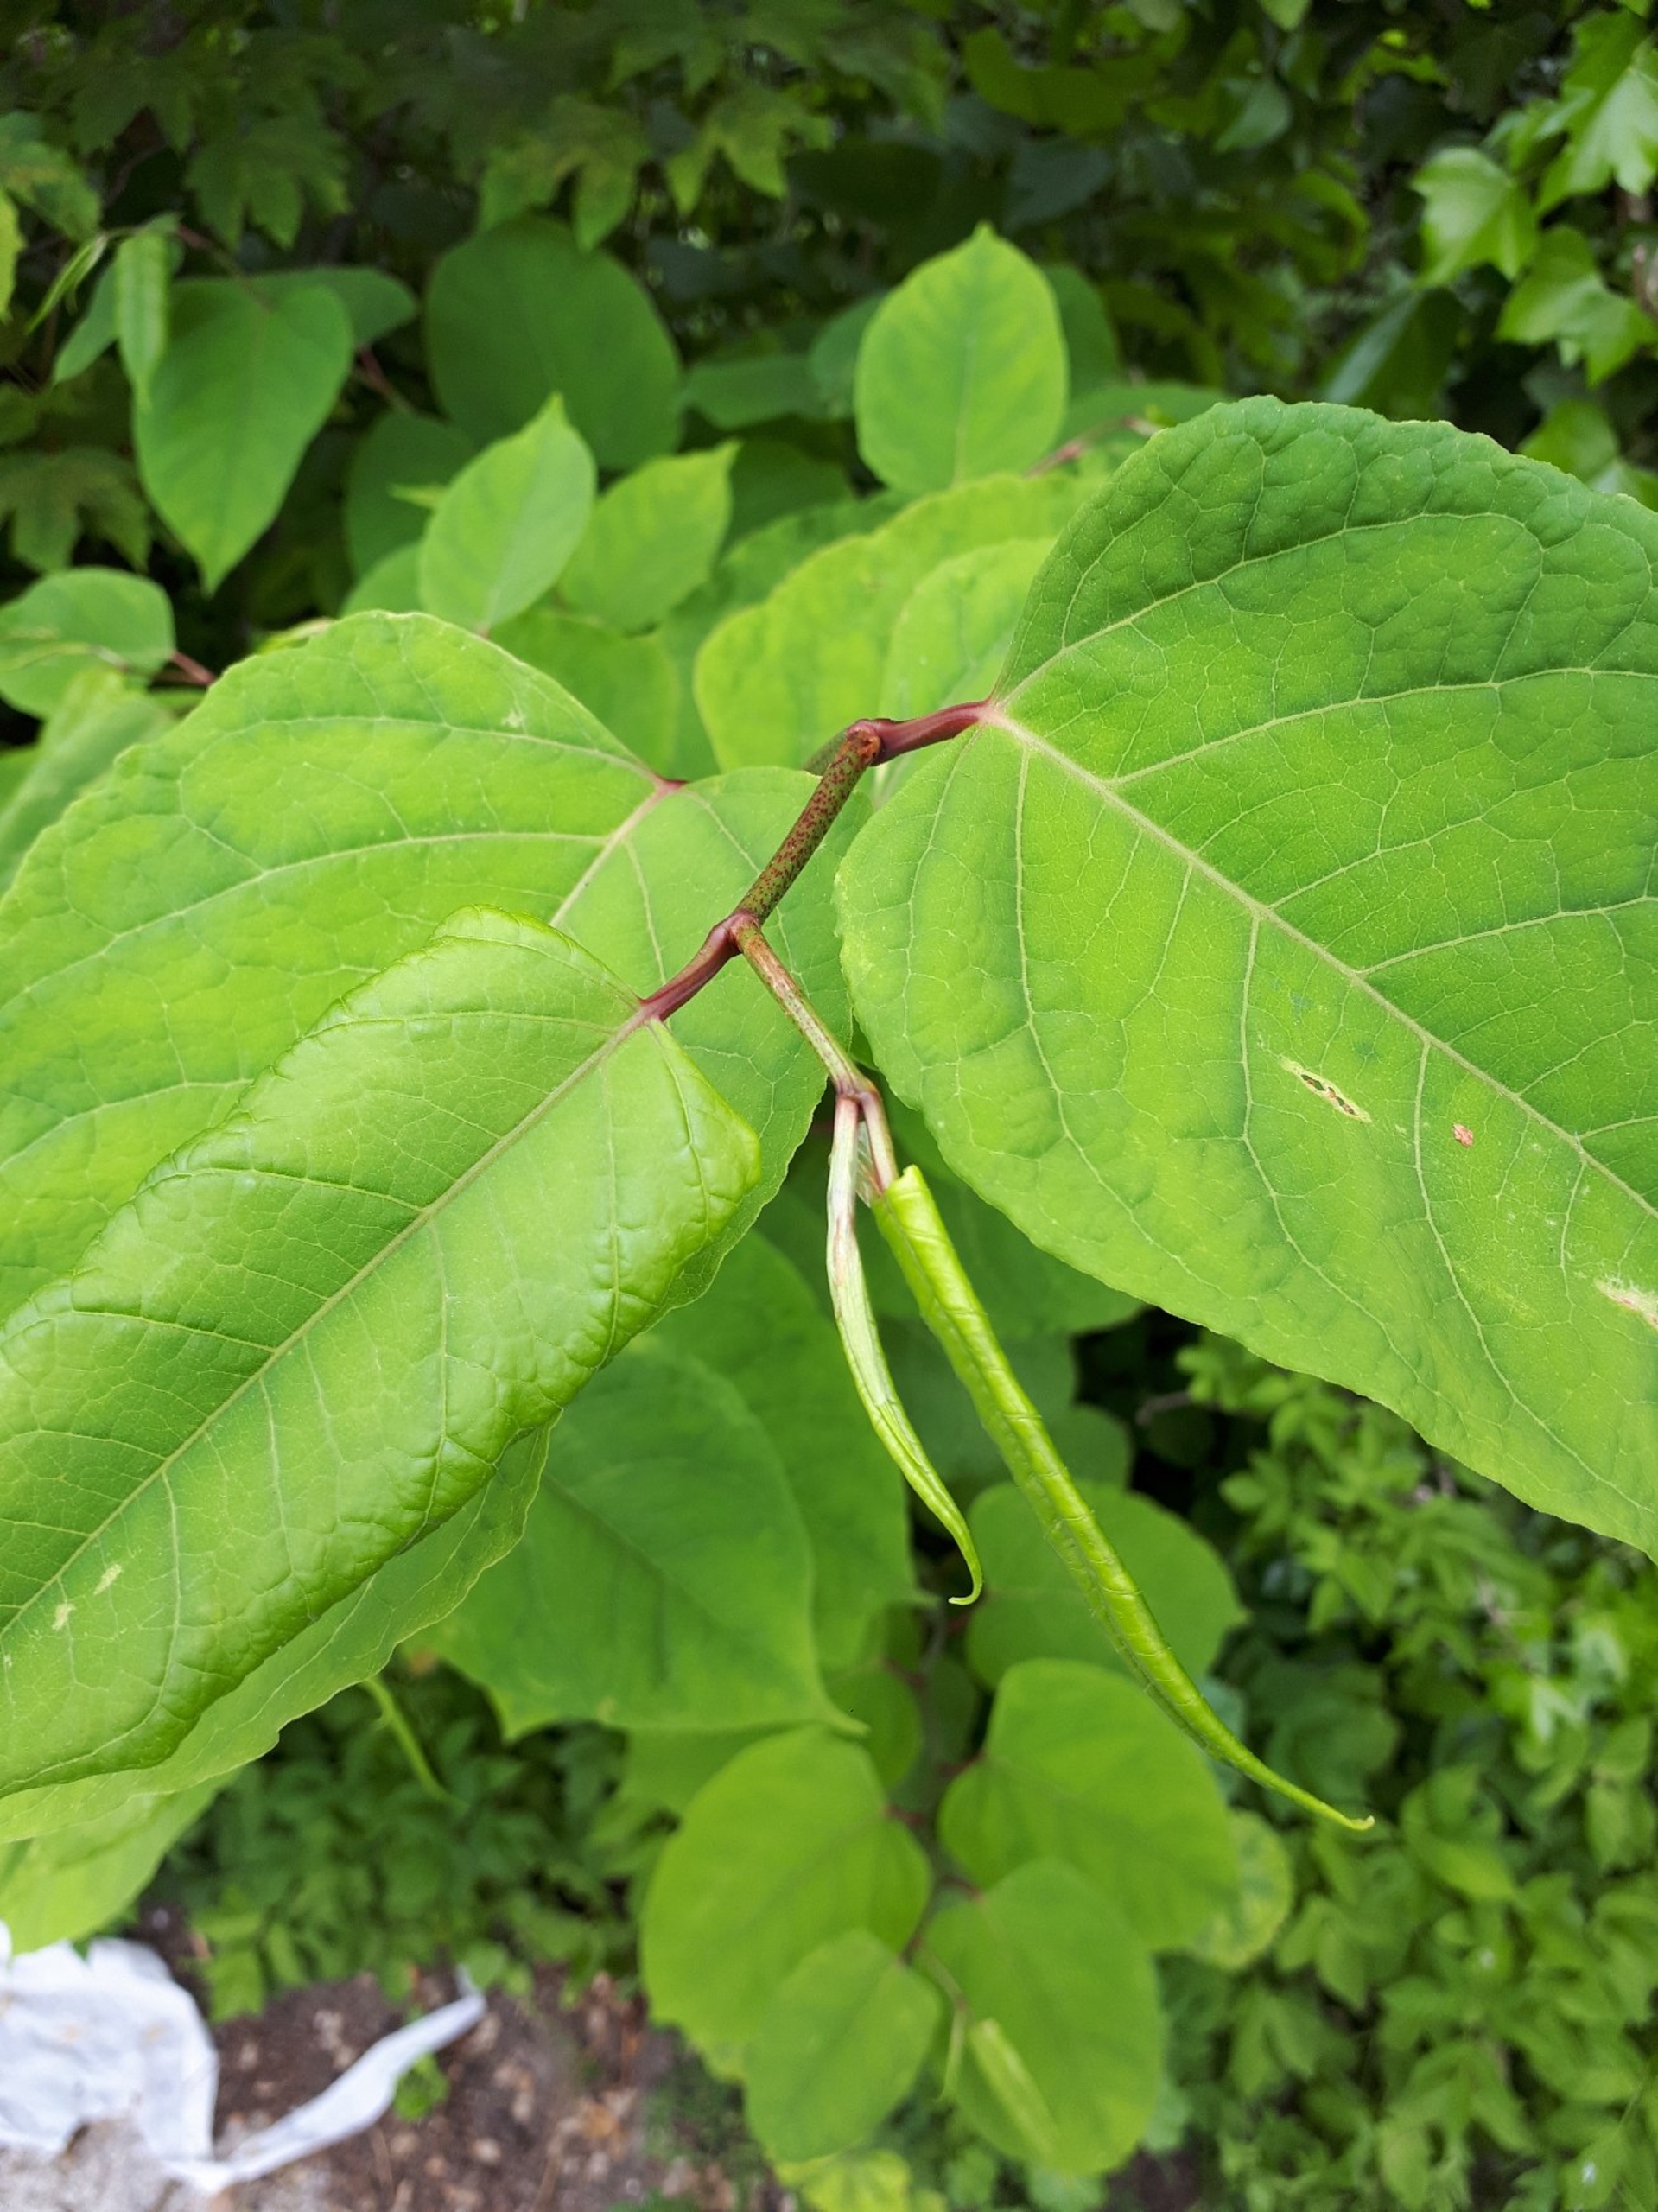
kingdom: Plantae
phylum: Tracheophyta
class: Magnoliopsida
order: Caryophyllales
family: Polygonaceae
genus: Reynoutria
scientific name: Reynoutria bohemica
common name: Hybrid-pileurt
